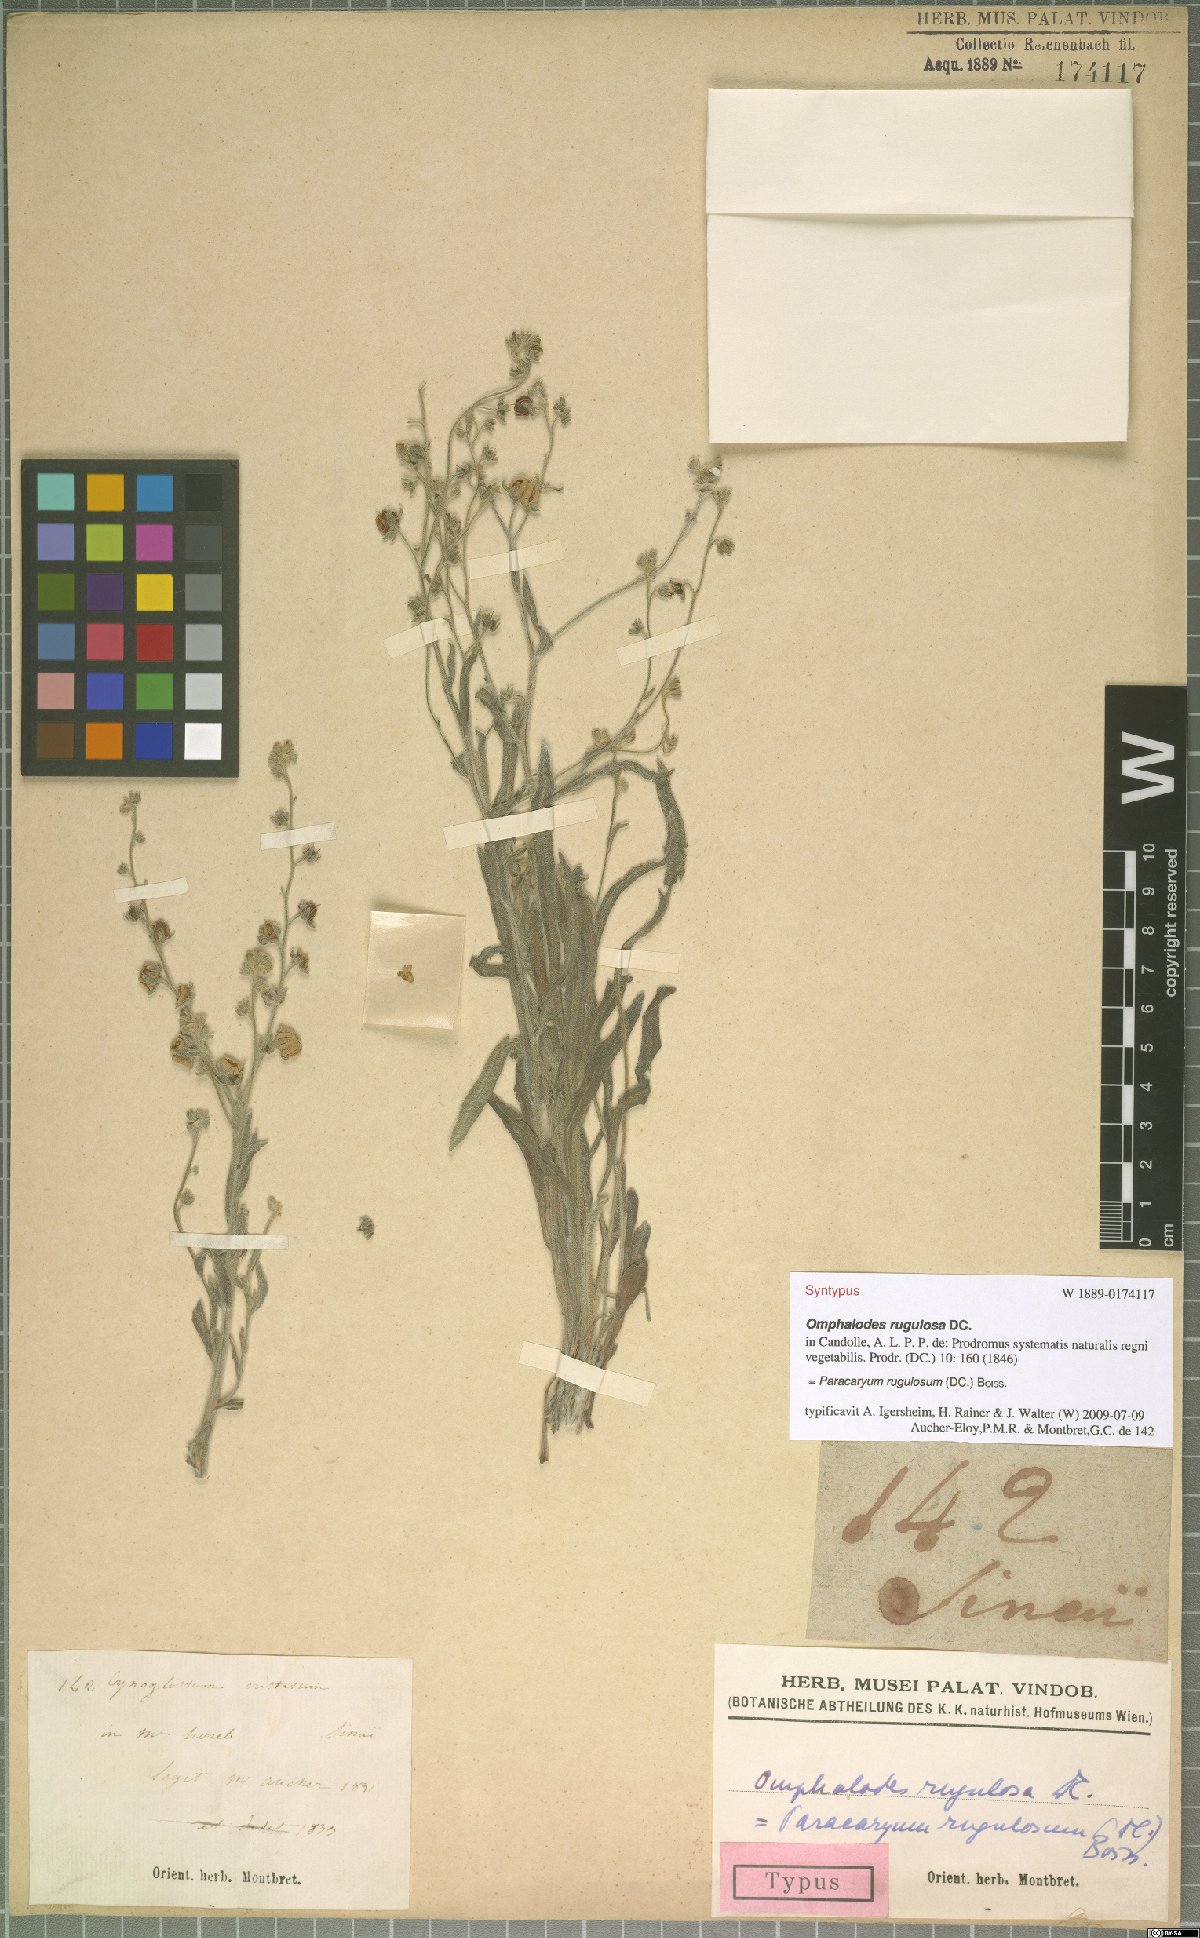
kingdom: Plantae
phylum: Tracheophyta
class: Magnoliopsida
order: Boraginales
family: Boraginaceae
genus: Paracaryum
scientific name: Paracaryum rugulosum
